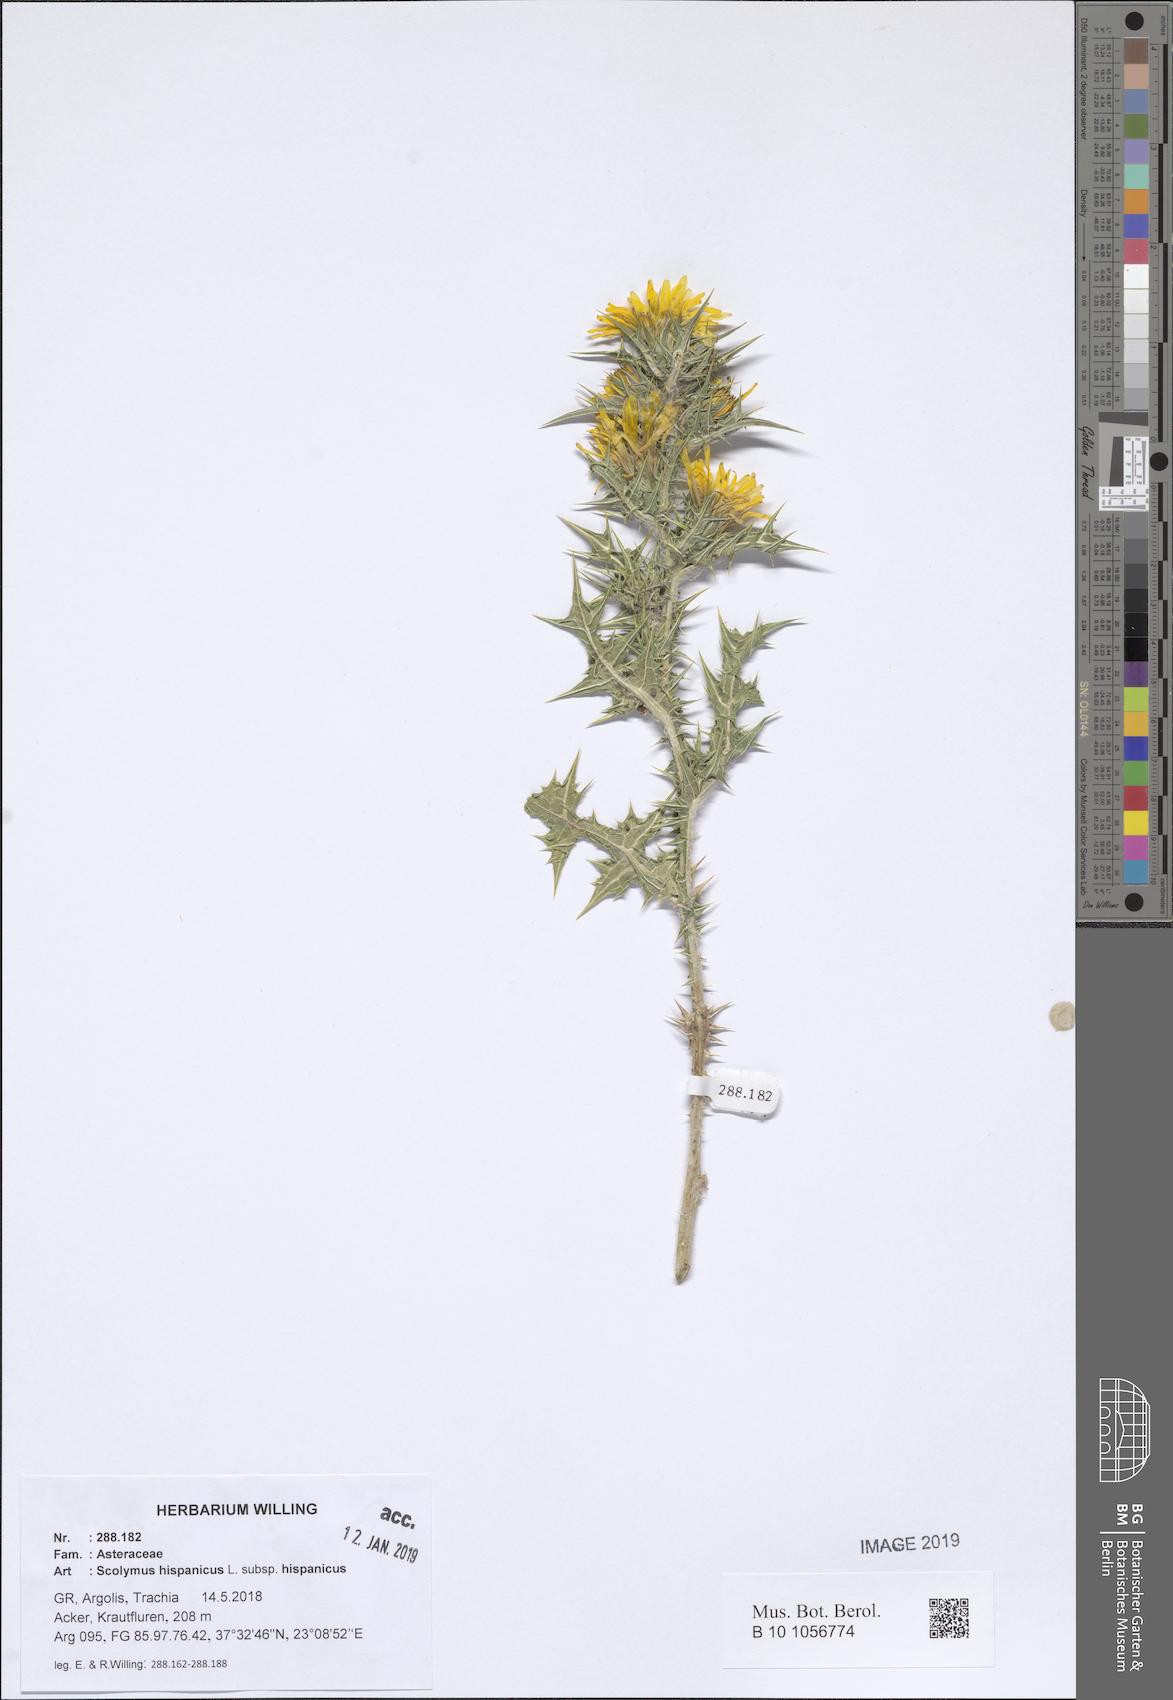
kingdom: Plantae
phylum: Tracheophyta
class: Magnoliopsida
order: Asterales
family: Asteraceae
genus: Scolymus
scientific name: Scolymus hispanicus
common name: Golden thistle
